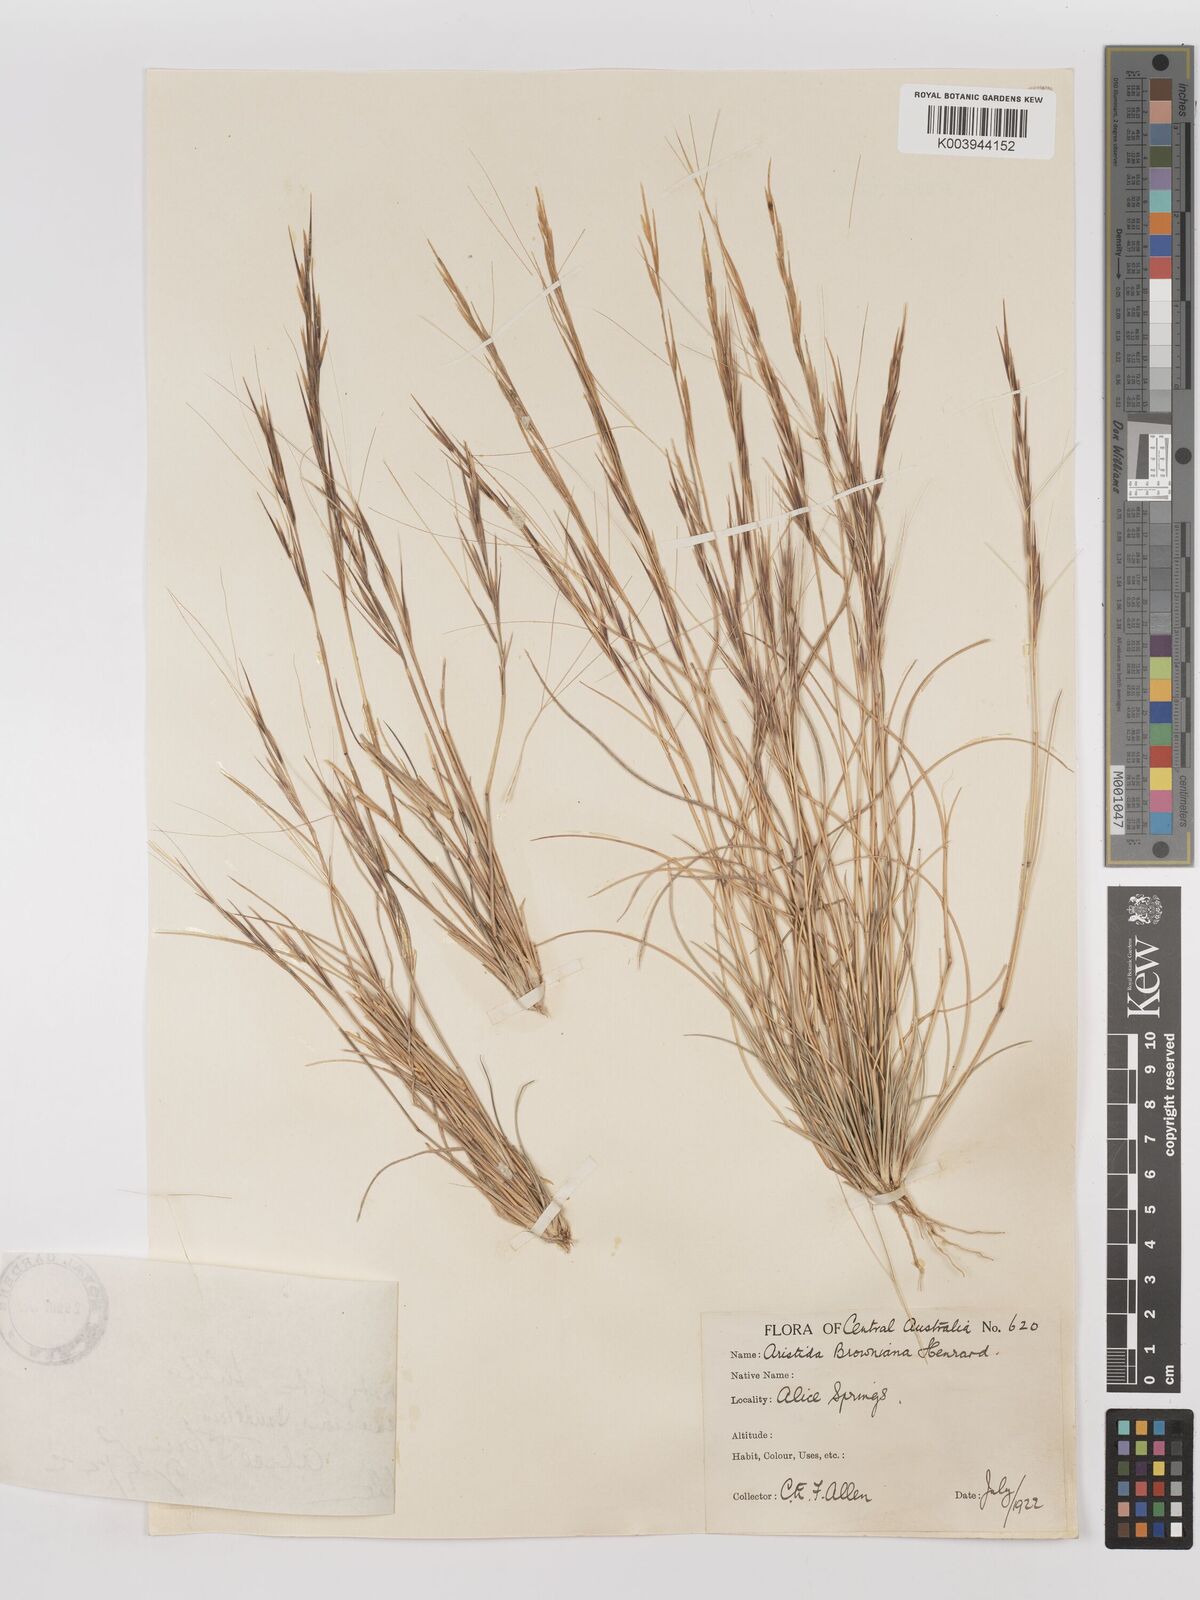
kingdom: Plantae
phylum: Tracheophyta
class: Liliopsida
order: Poales
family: Poaceae
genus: Aristida
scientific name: Aristida holathera
